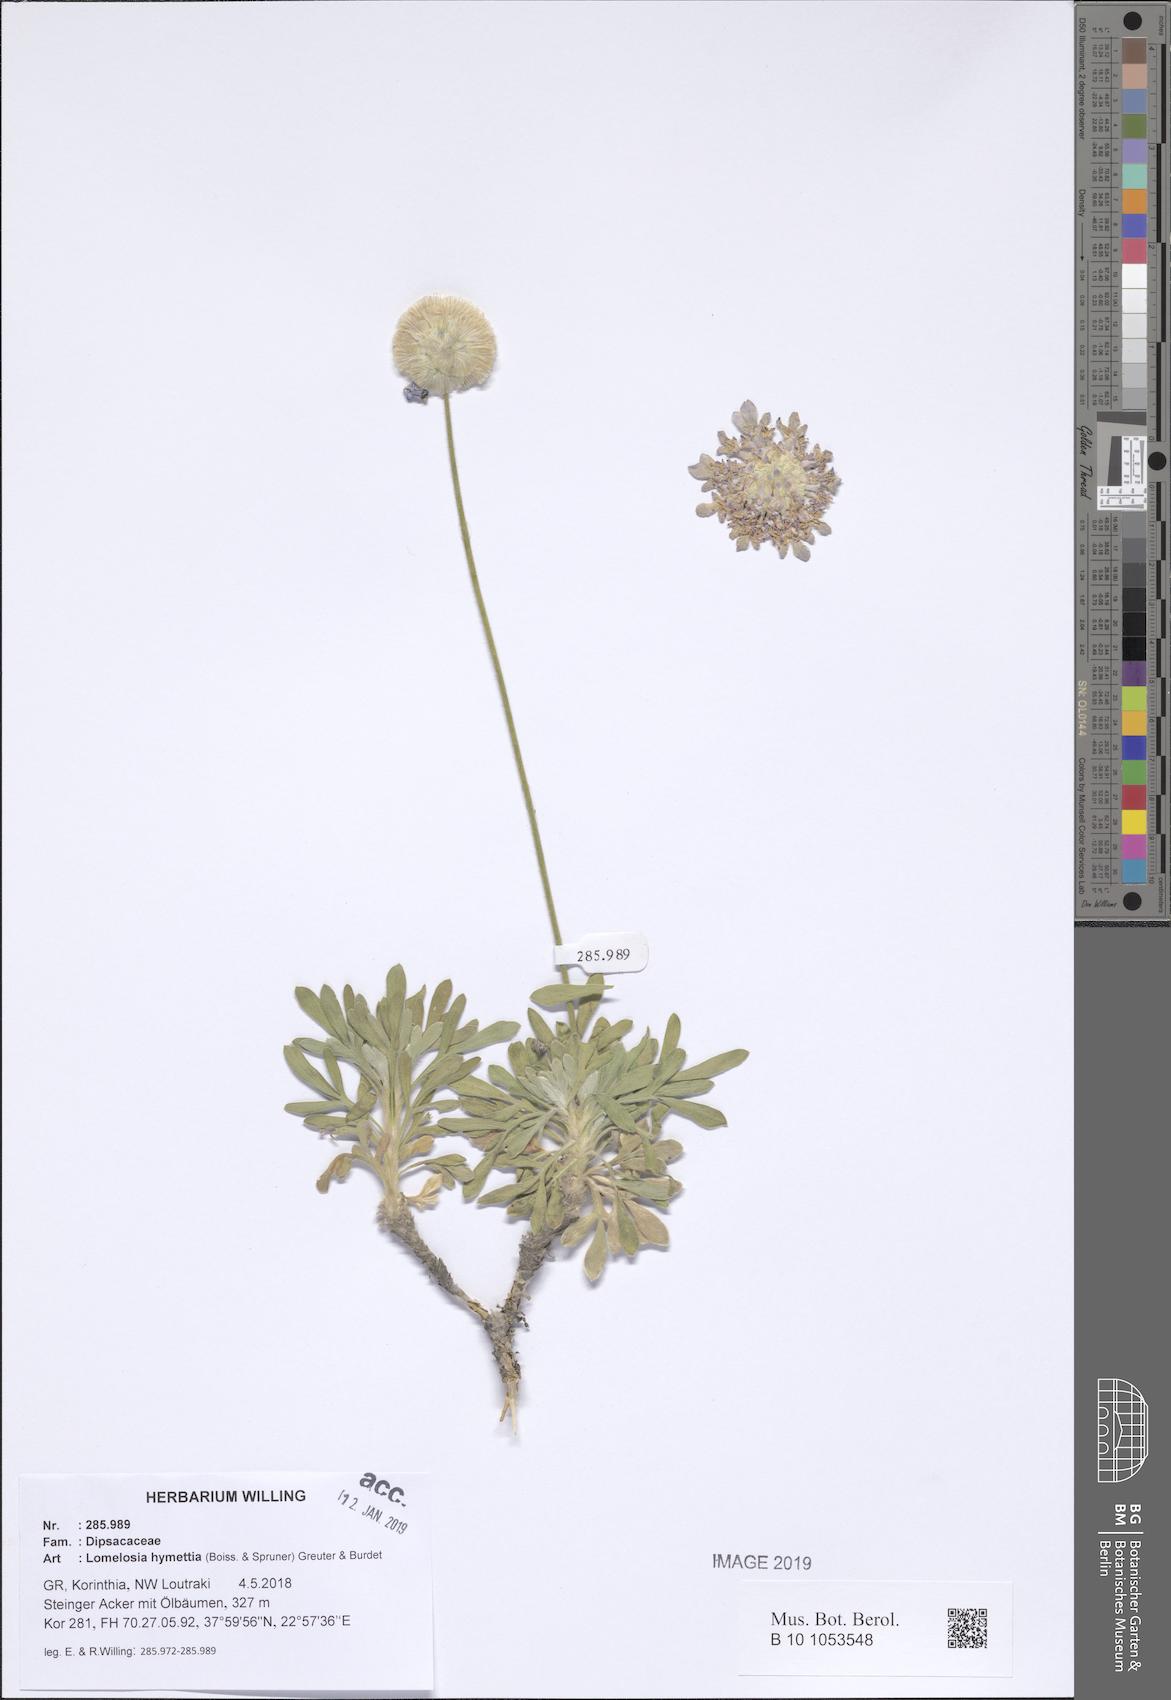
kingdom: Plantae
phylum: Tracheophyta
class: Magnoliopsida
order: Dipsacales
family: Caprifoliaceae
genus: Lomelosia
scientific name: Lomelosia hymettia
